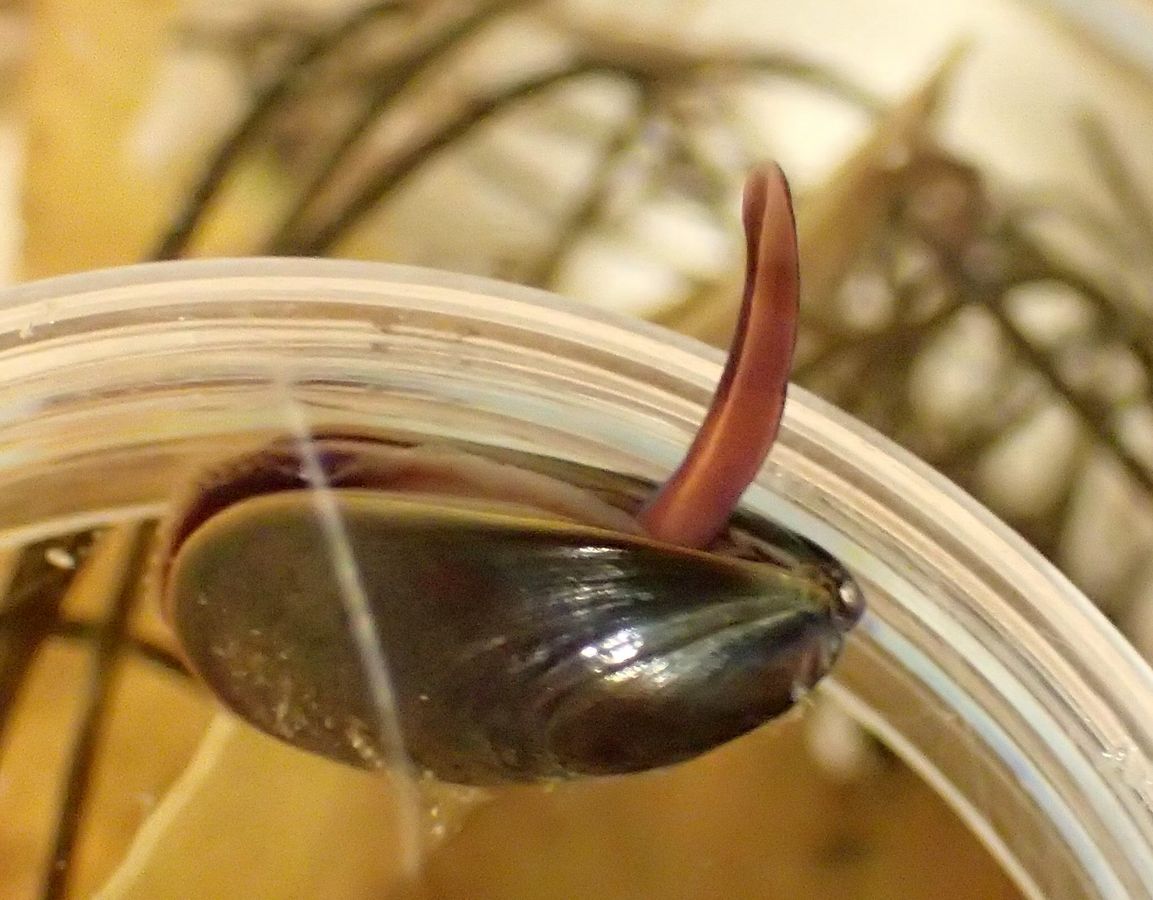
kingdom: Animalia
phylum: Mollusca
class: Bivalvia
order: Mytilida
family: Mytilidae
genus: Mytilus
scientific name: Mytilus edulis
